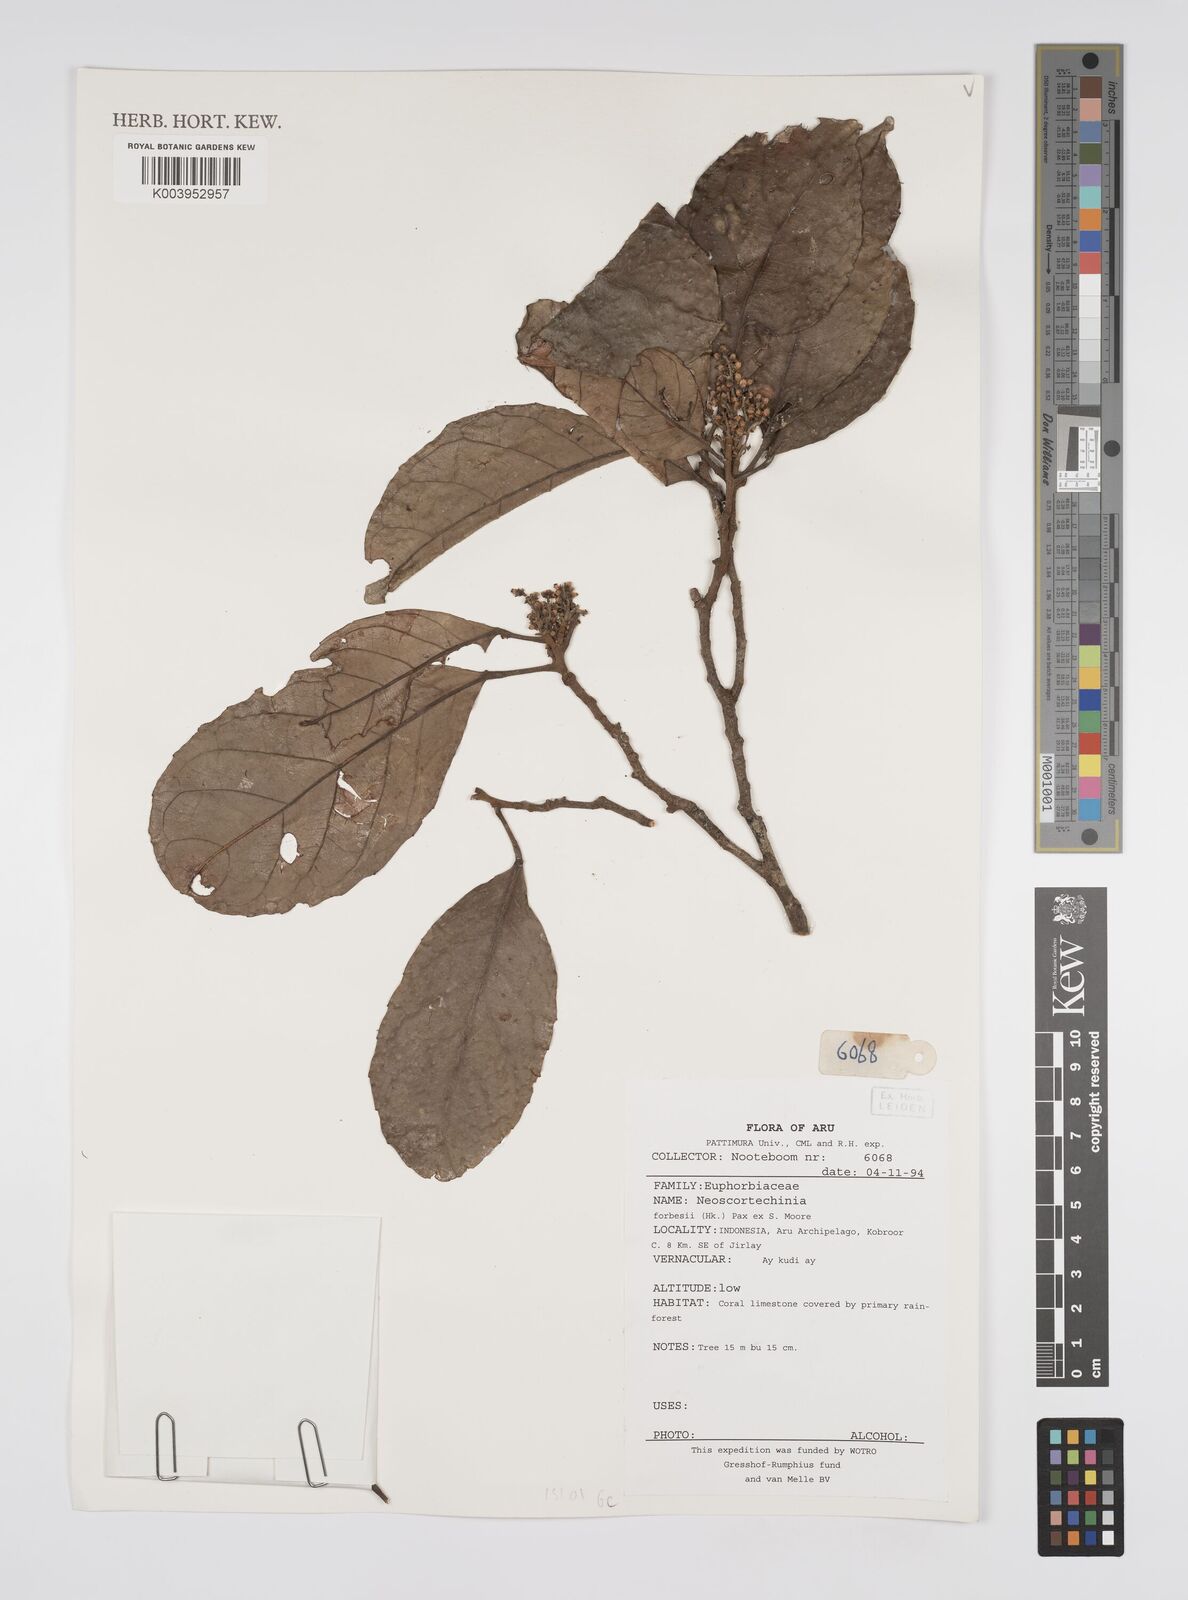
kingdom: Plantae
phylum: Tracheophyta
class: Magnoliopsida
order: Malpighiales
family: Euphorbiaceae
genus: Neoscortechinia
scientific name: Neoscortechinia
